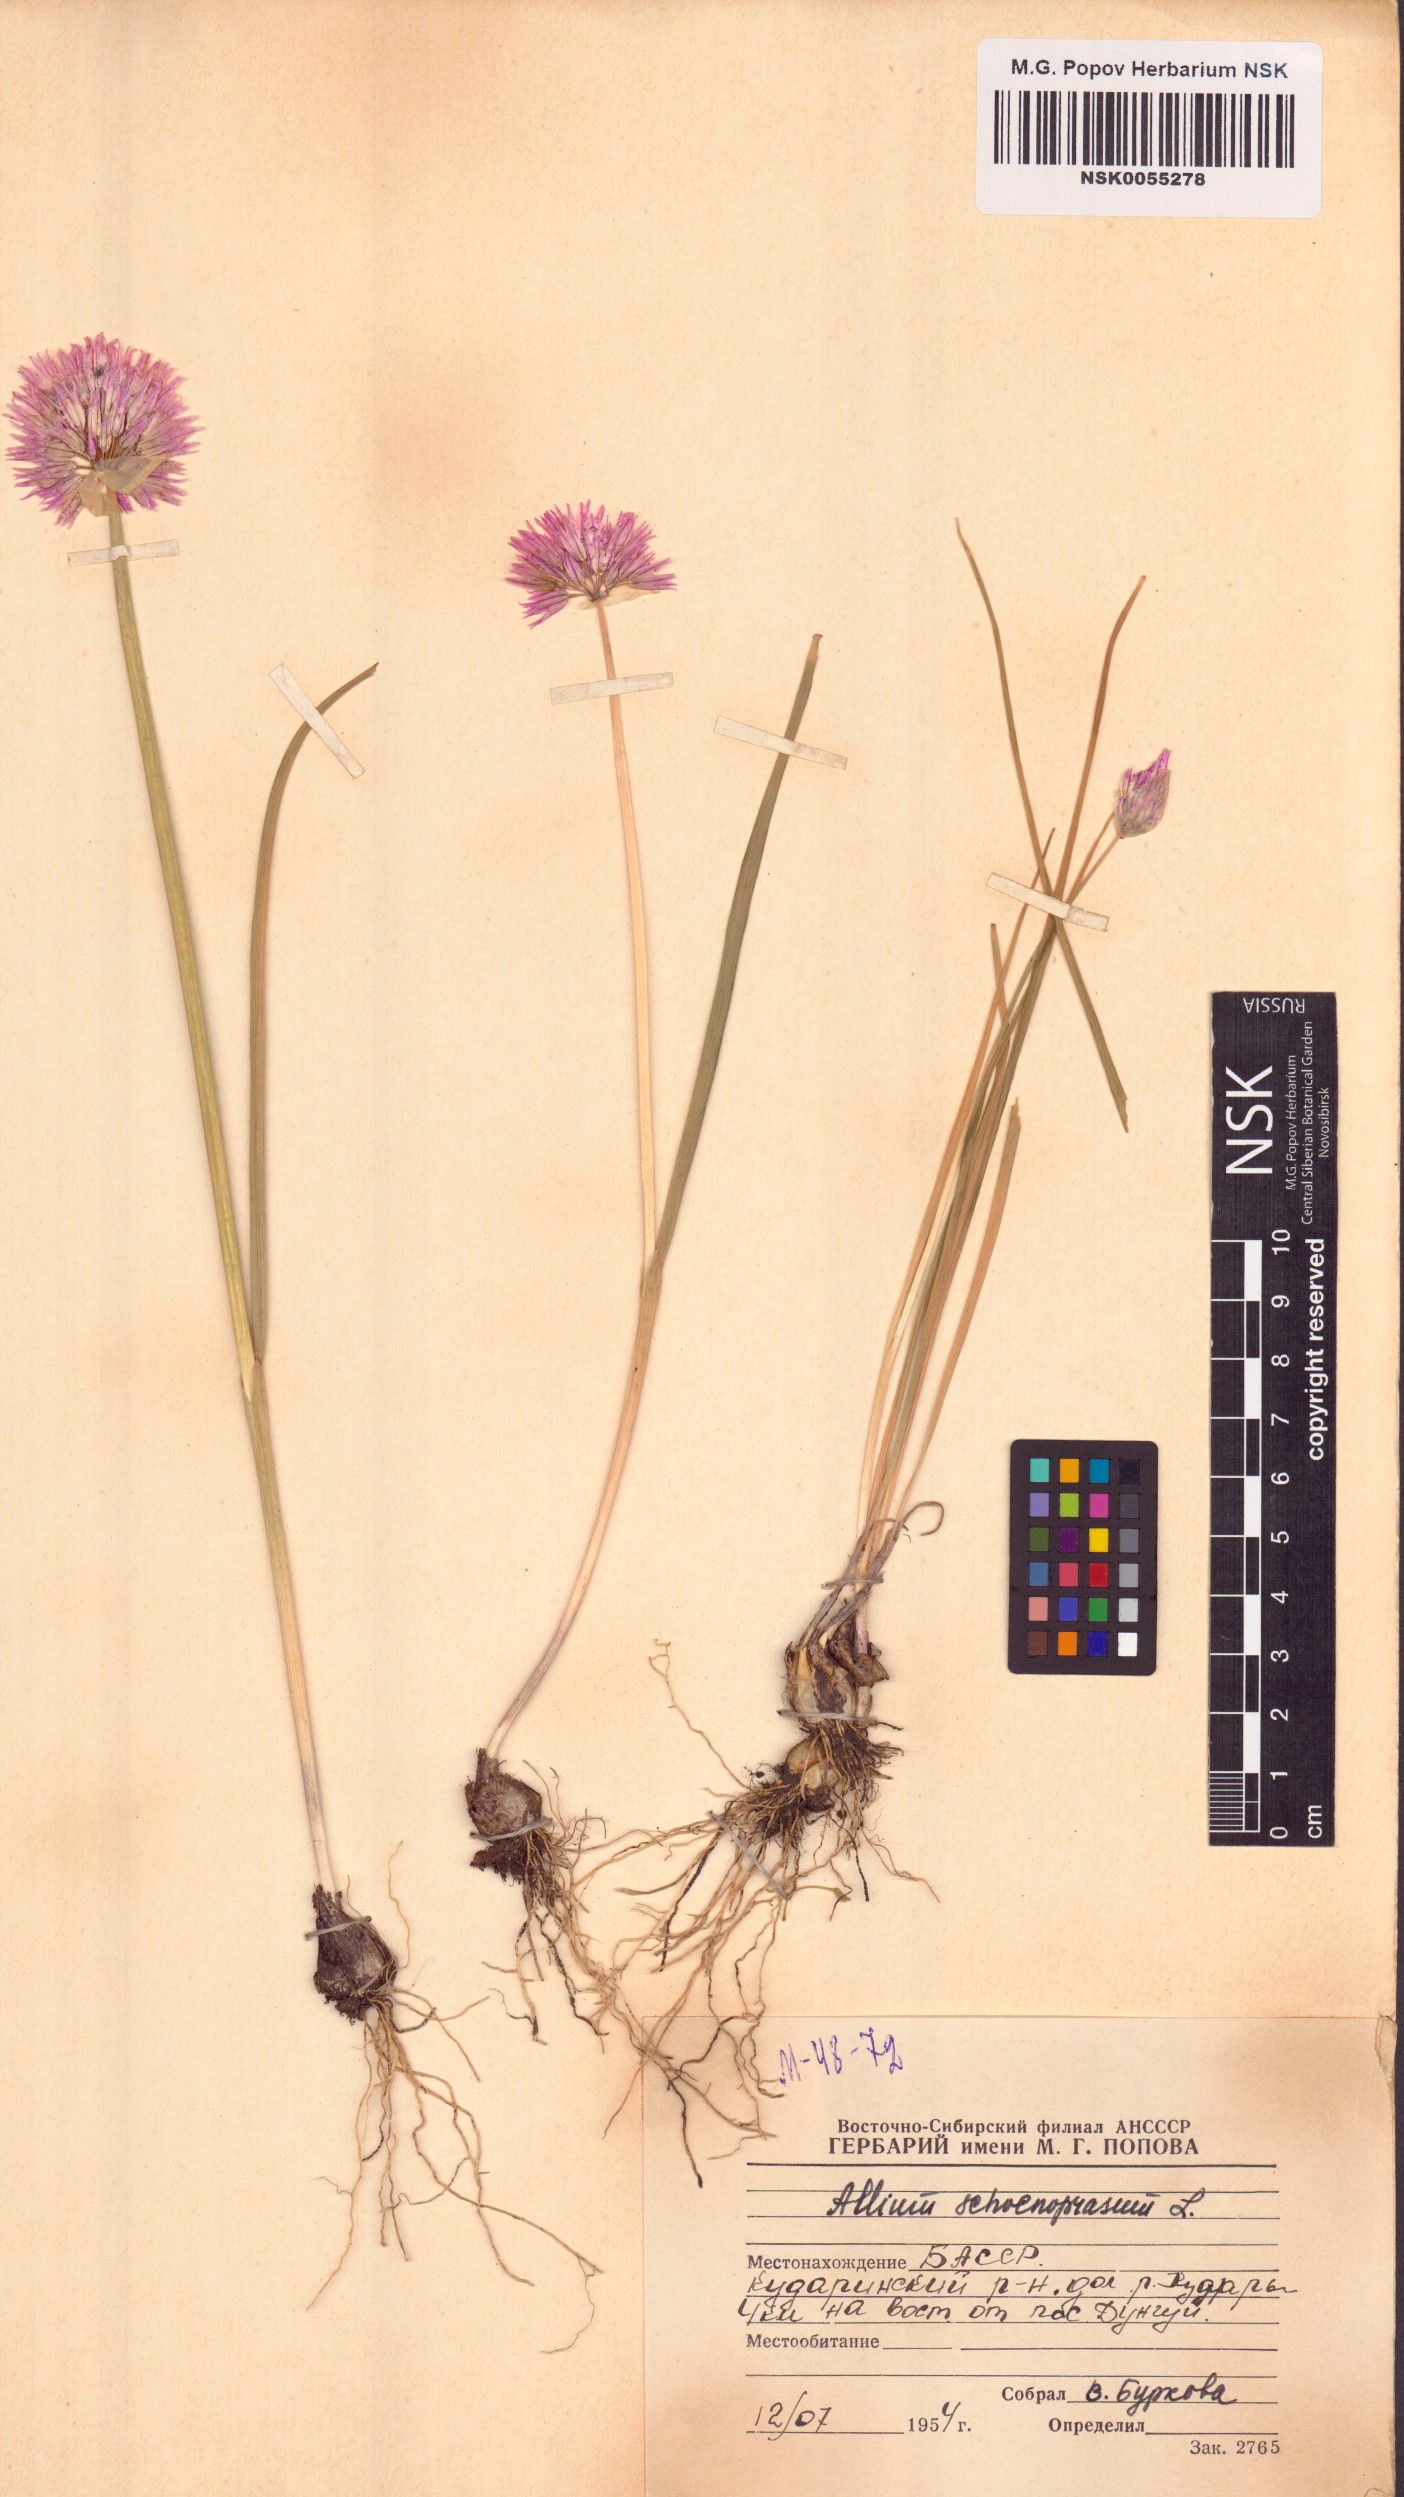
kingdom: Plantae
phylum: Tracheophyta
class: Liliopsida
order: Asparagales
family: Amaryllidaceae
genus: Allium
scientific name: Allium schoenoprasum
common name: Chives
